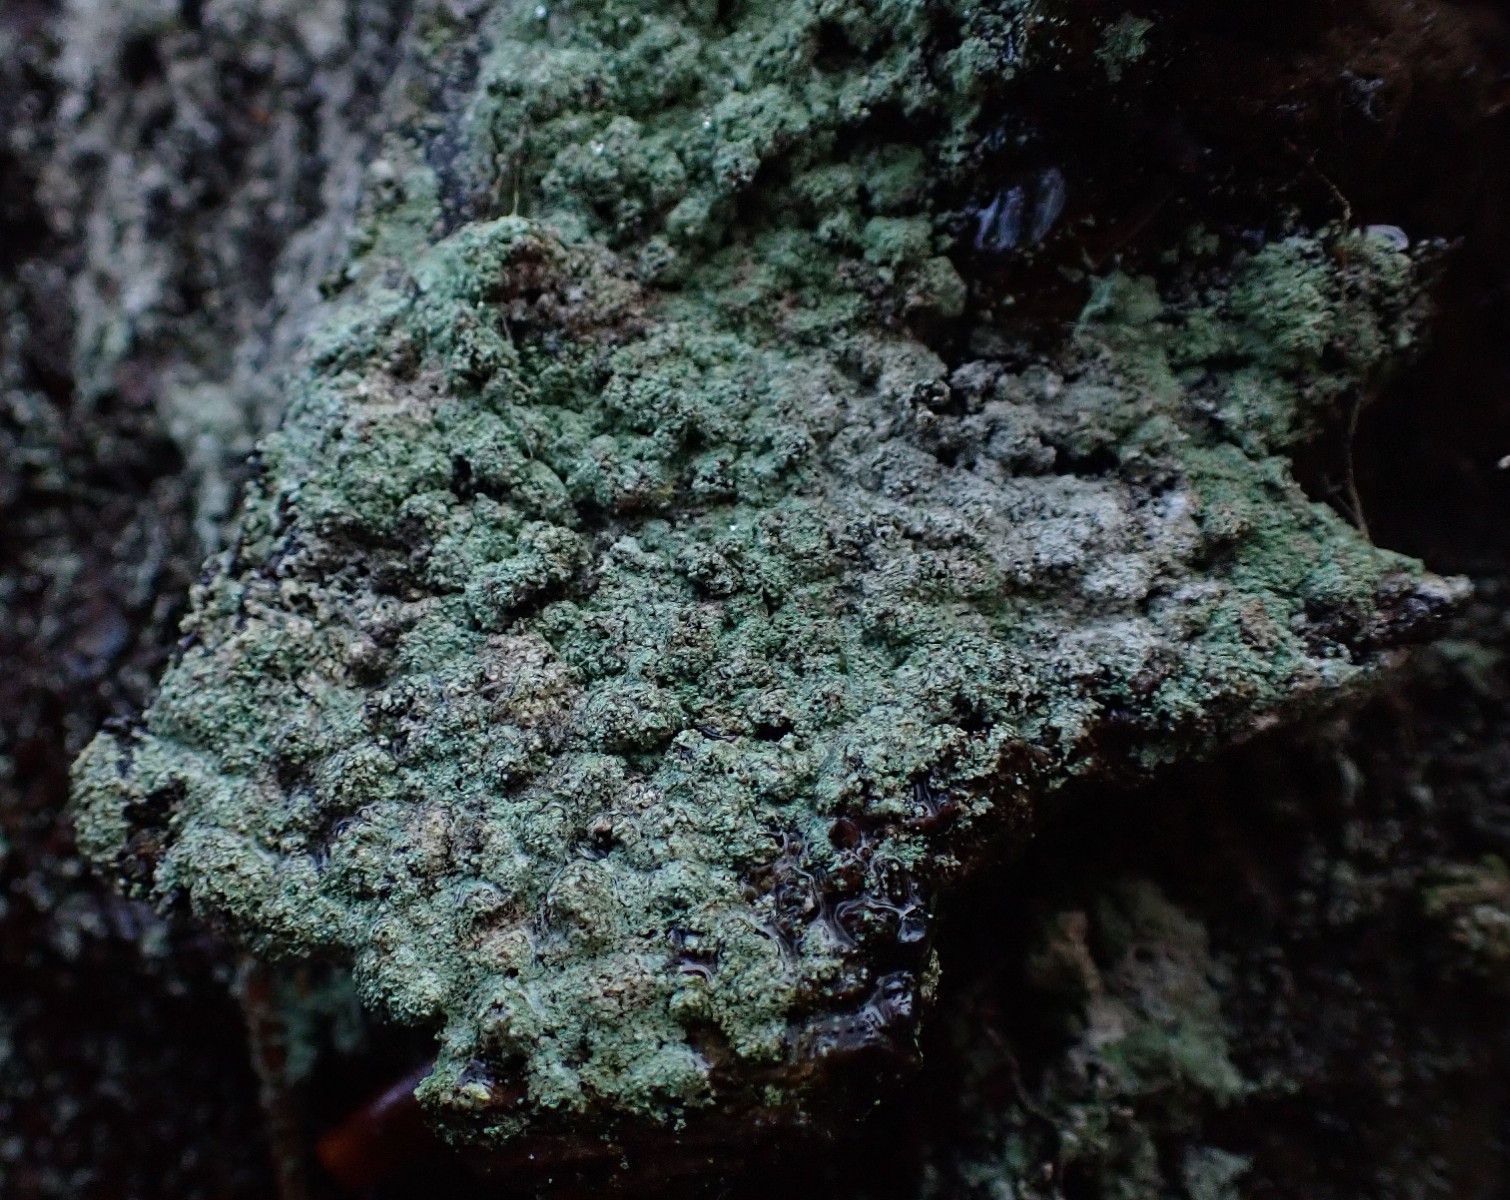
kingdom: Fungi
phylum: Ascomycota
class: Lecanoromycetes
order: Lecanorales
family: Stereocaulaceae
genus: Lepraria
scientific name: Lepraria incana
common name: almindelig støvlav
